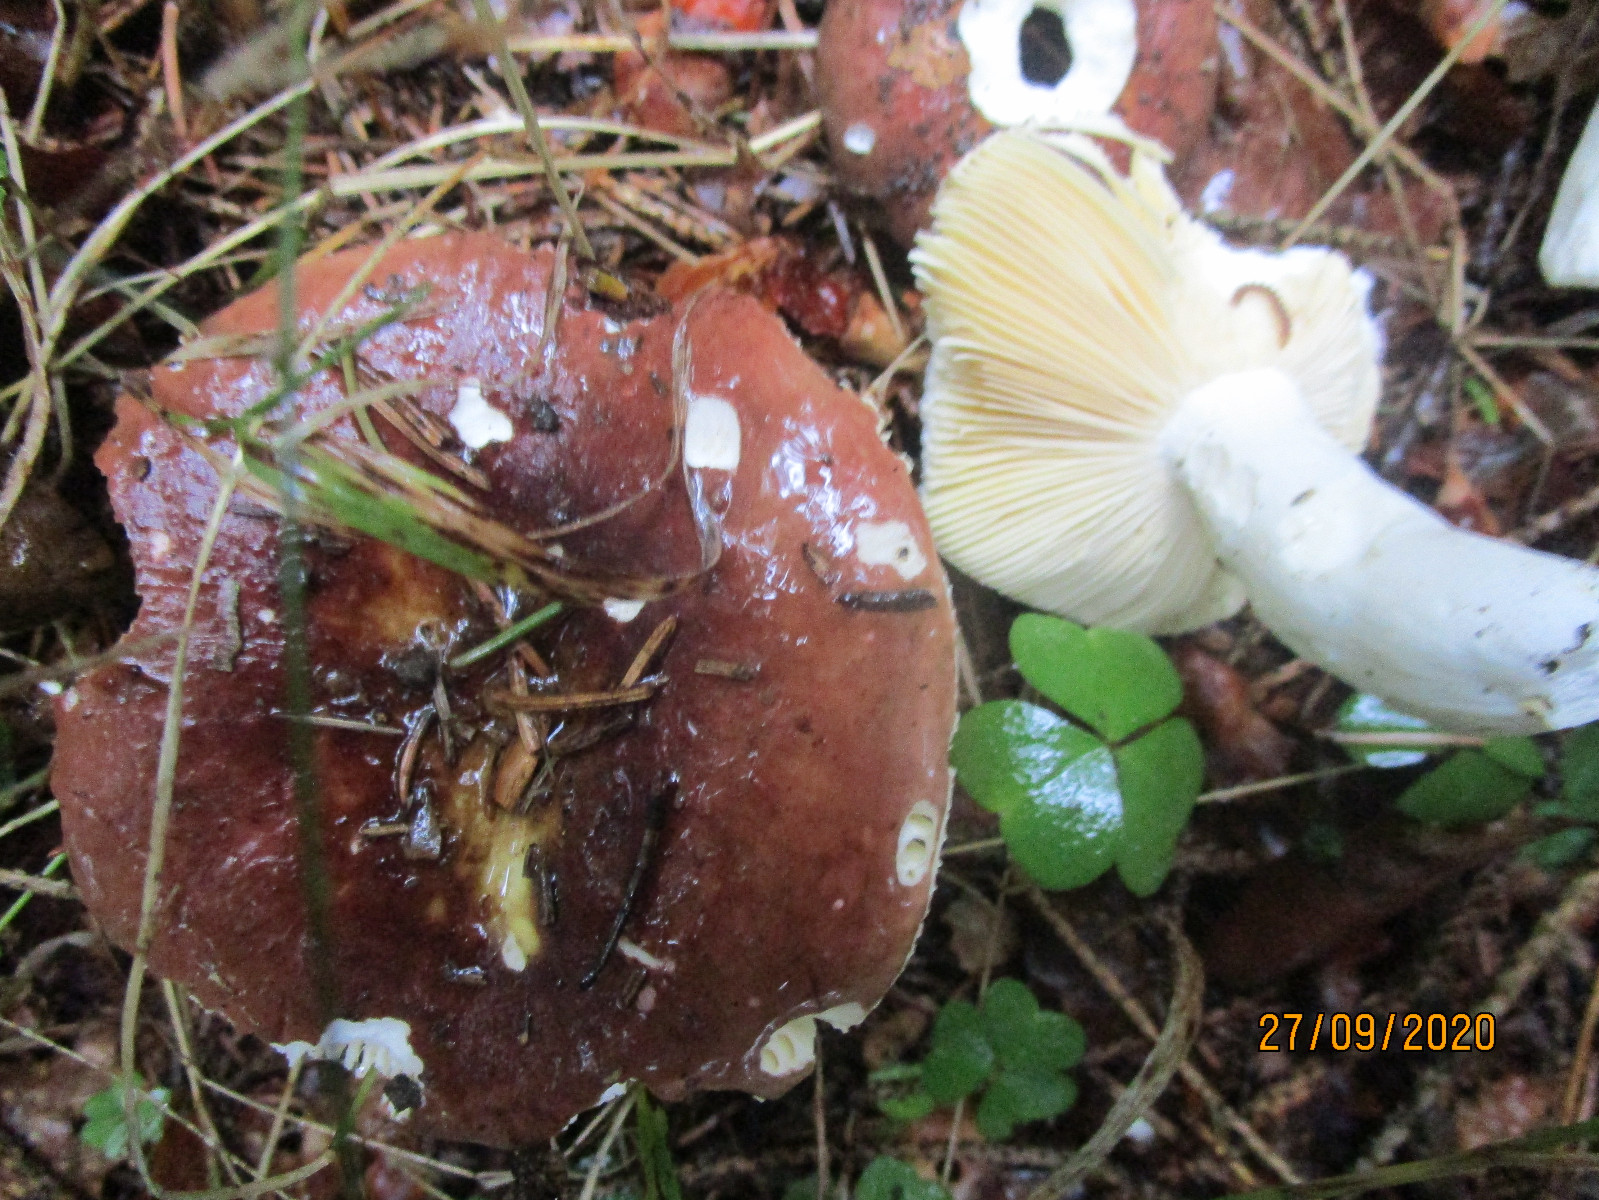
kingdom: Fungi
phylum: Basidiomycota
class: Agaricomycetes
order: Russulales
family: Russulaceae
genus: Russula
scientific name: Russula integra
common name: mandel-skørhat
